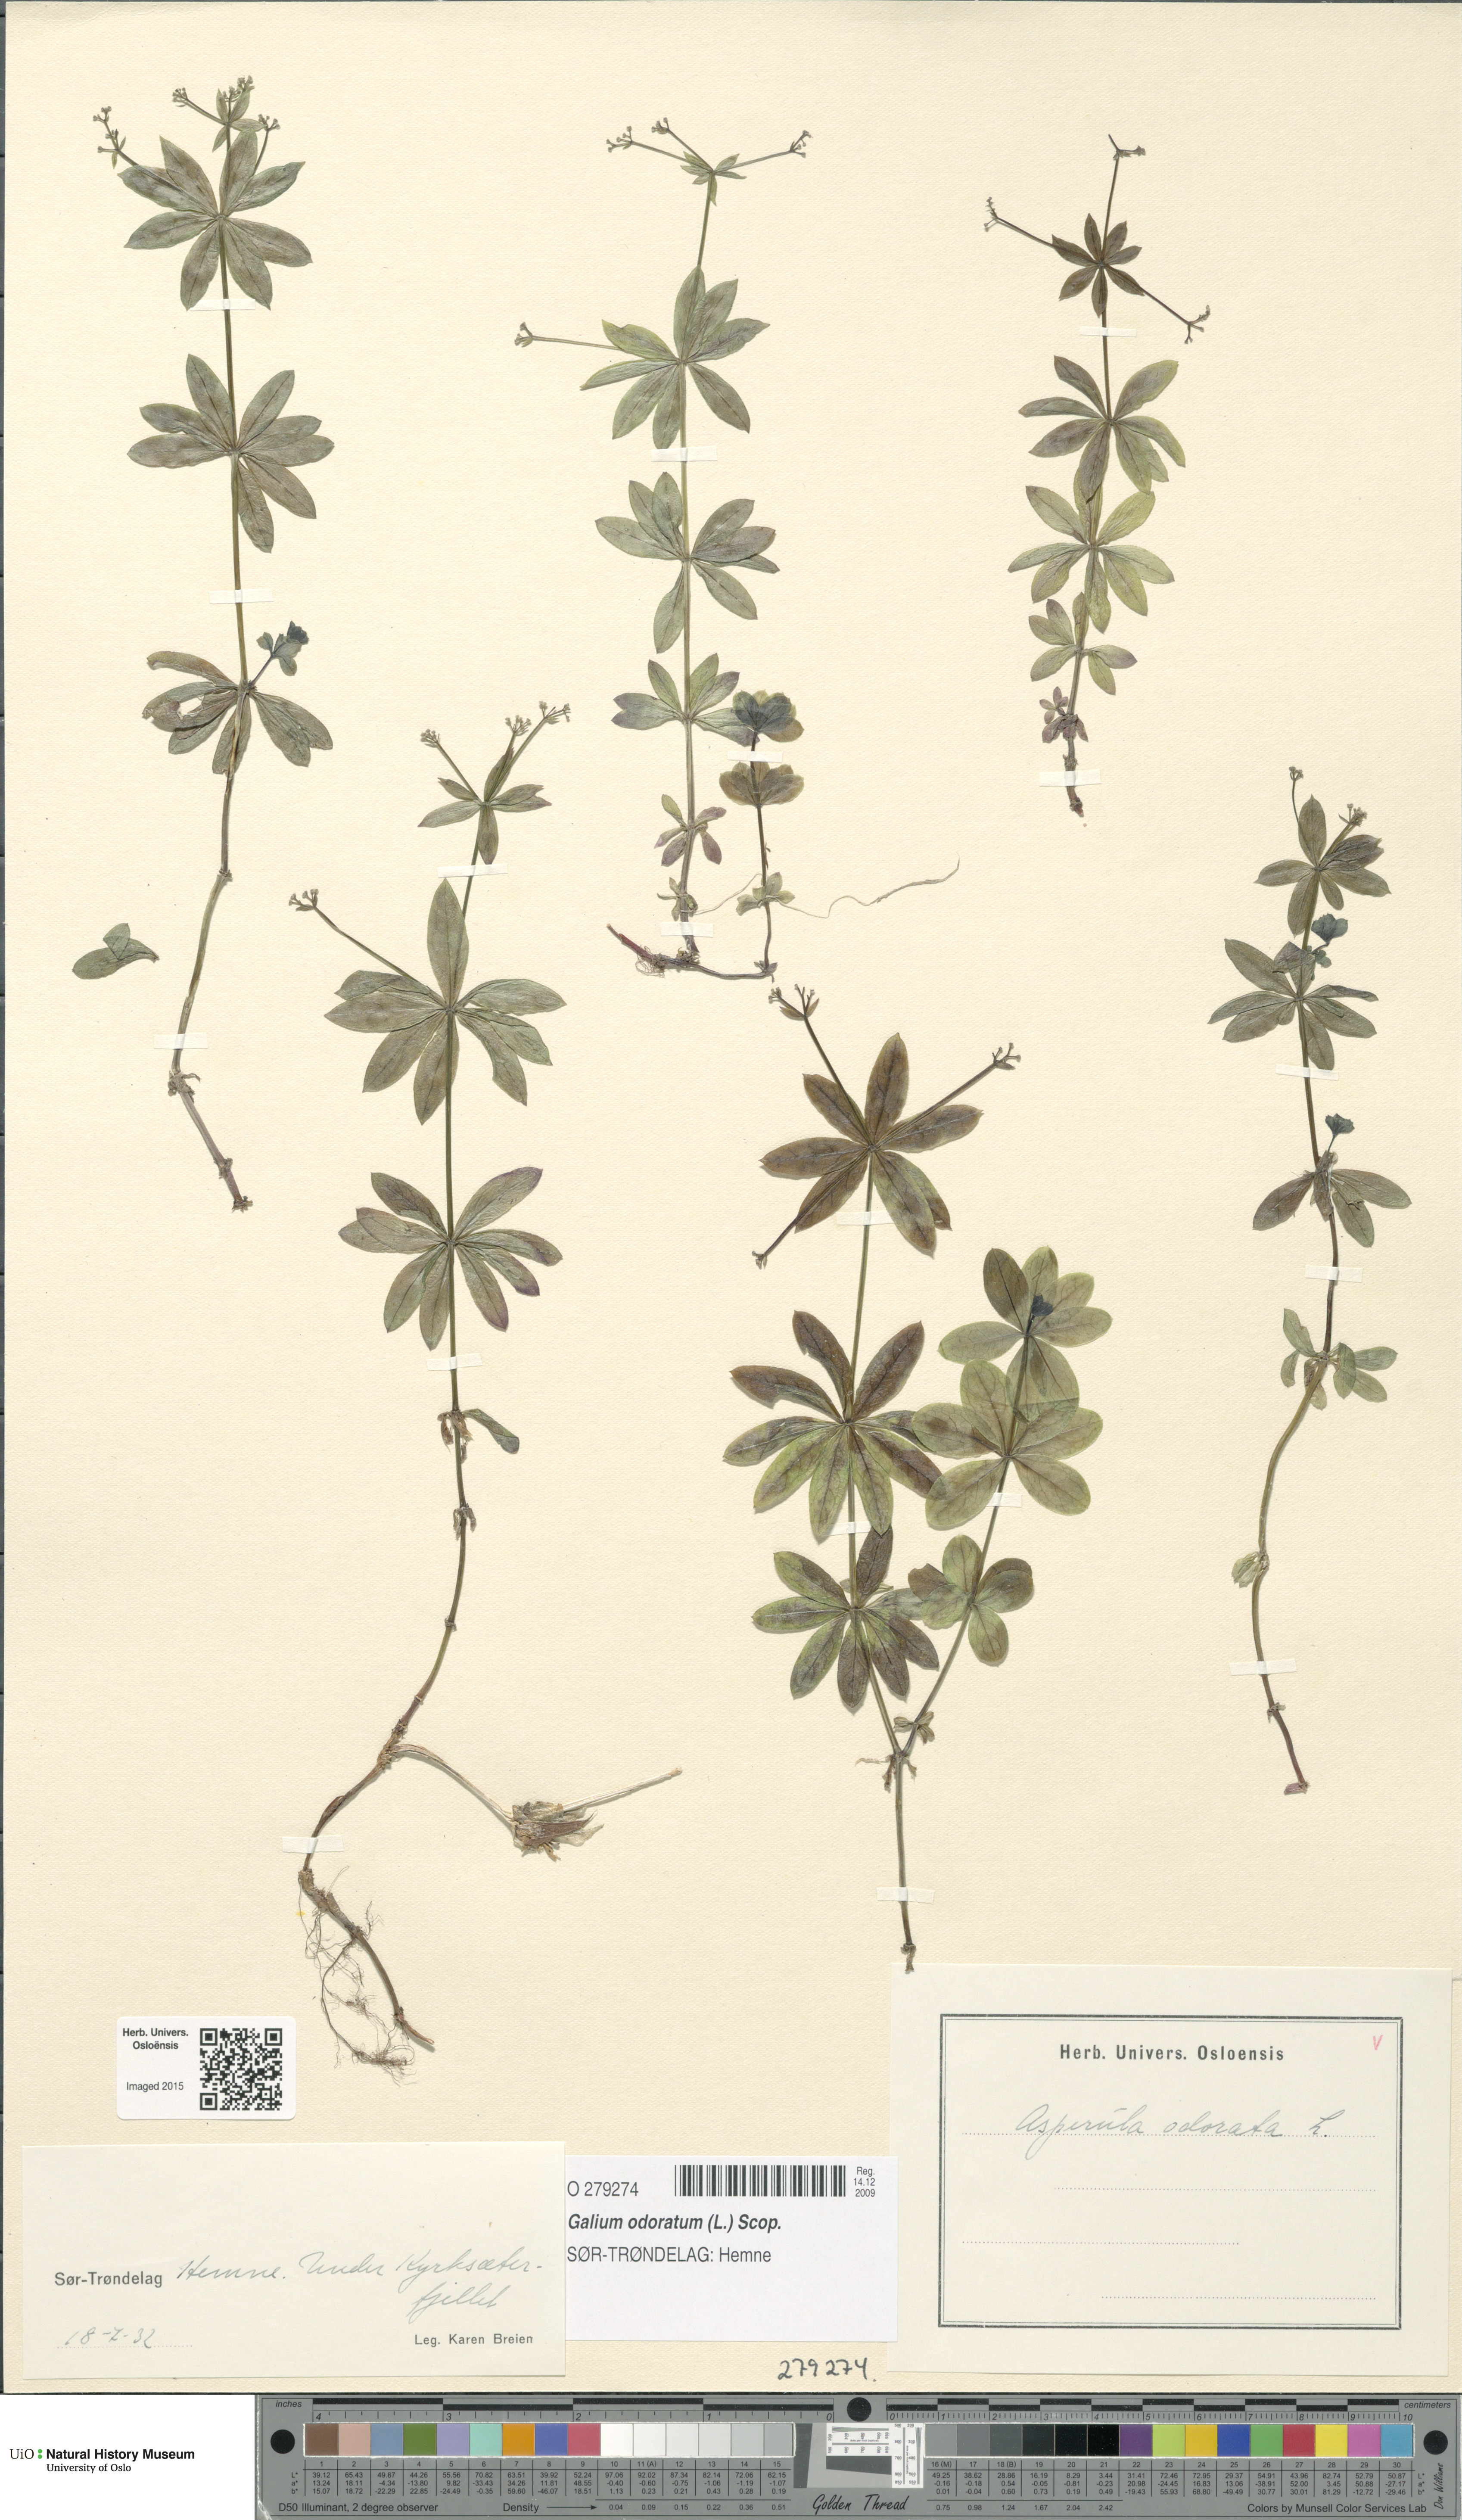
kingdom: Plantae
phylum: Tracheophyta
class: Magnoliopsida
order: Gentianales
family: Rubiaceae
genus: Galium
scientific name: Galium odoratum
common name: Sweet woodruff
